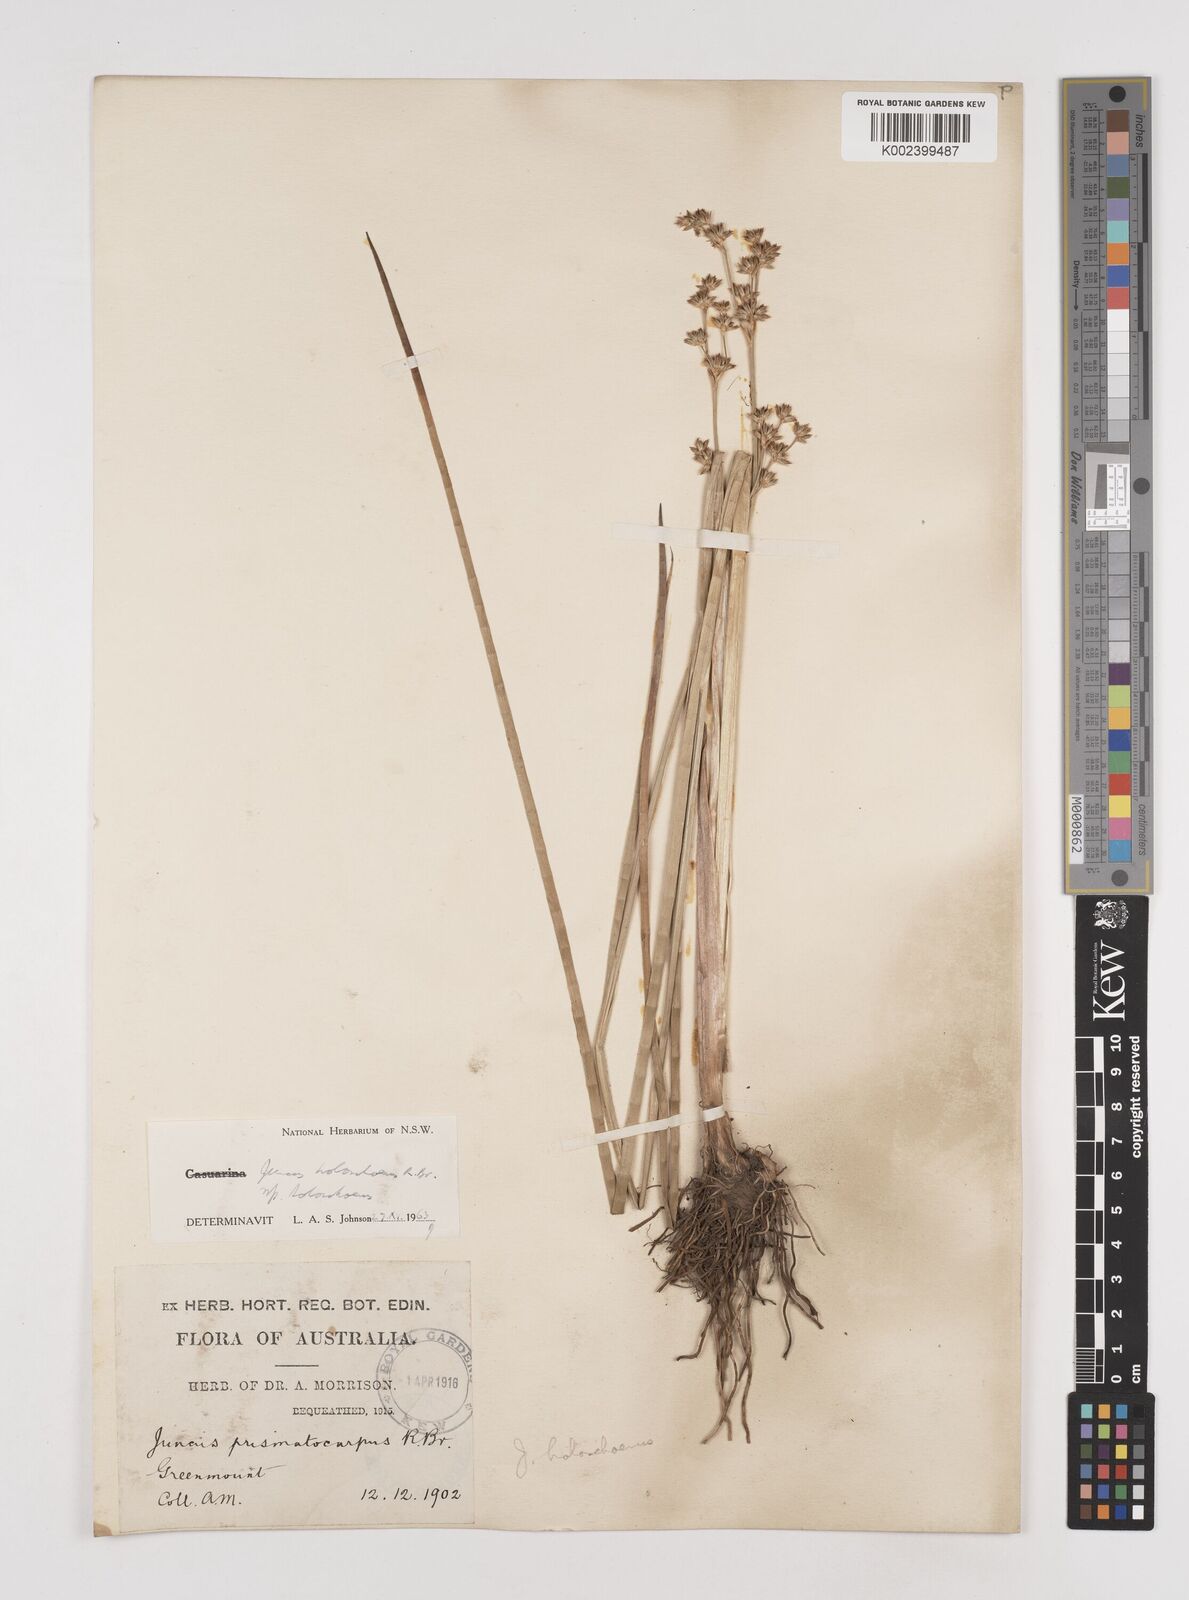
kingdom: Plantae
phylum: Tracheophyta
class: Liliopsida
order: Poales
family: Juncaceae
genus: Juncus
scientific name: Juncus holoschoenus
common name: Joint-leaf rush
